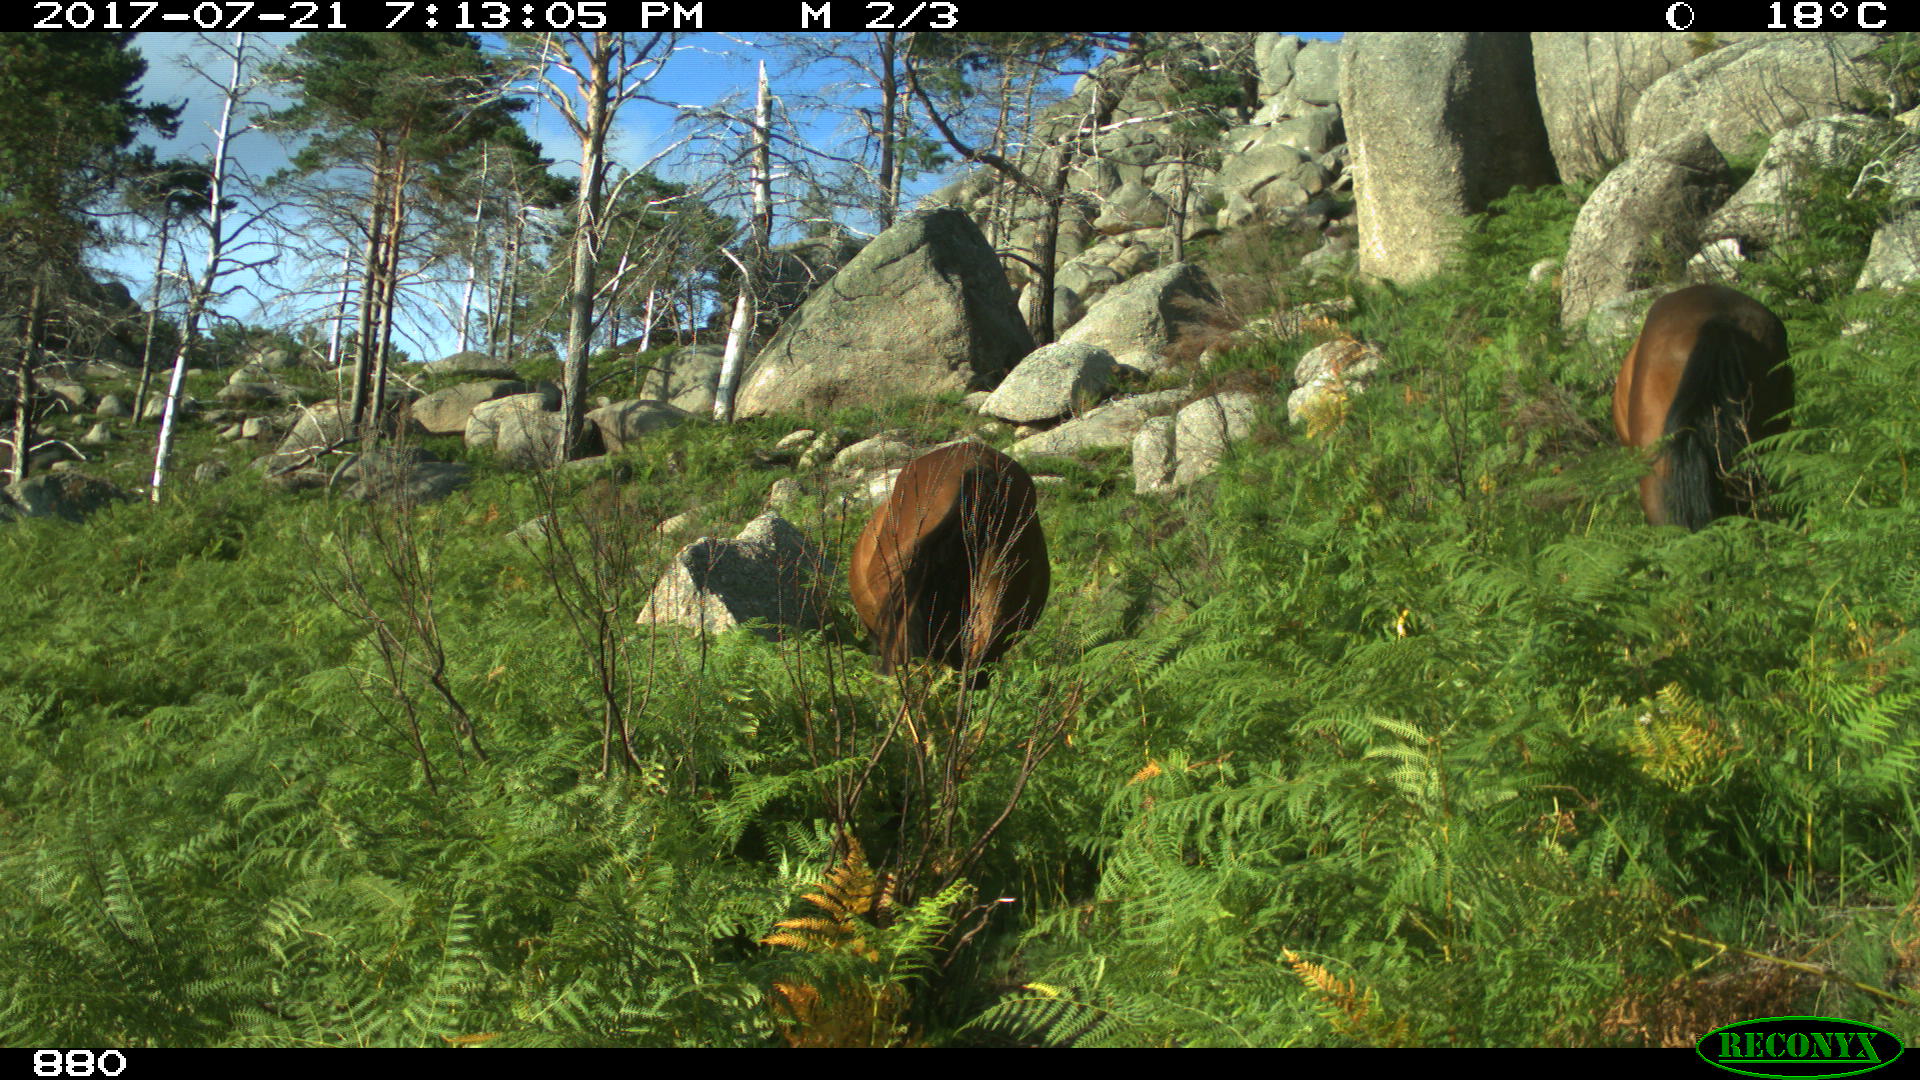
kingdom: Animalia
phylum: Chordata
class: Mammalia
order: Perissodactyla
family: Equidae
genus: Equus
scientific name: Equus caballus
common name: Horse
